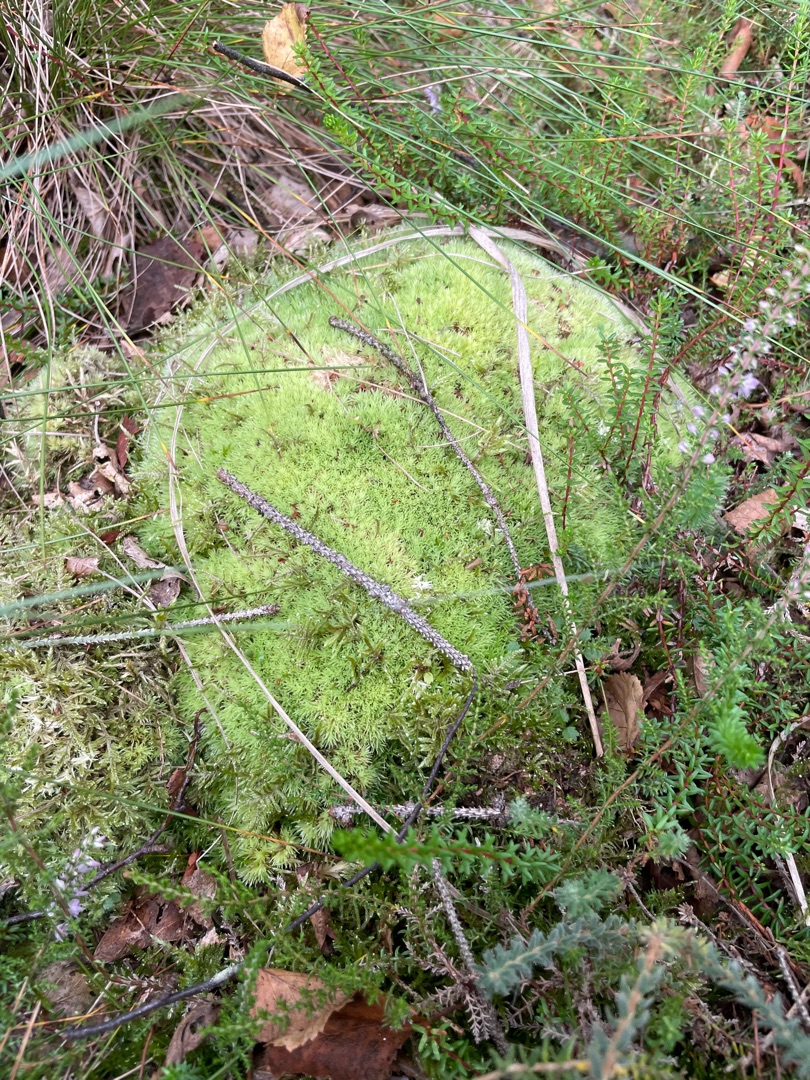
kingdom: Plantae
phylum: Bryophyta
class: Bryopsida
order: Dicranales
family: Leucobryaceae
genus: Leucobryum
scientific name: Leucobryum glaucum
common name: Almindelig hvidmos
